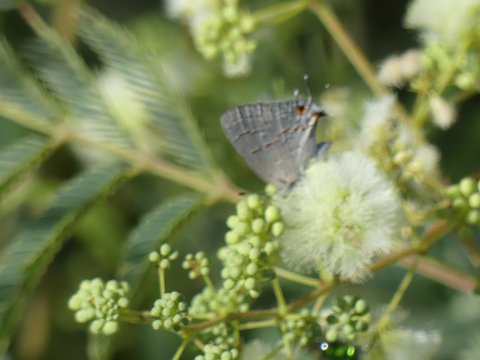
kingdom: Animalia
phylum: Arthropoda
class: Insecta
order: Lepidoptera
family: Lycaenidae
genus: Ministrymon
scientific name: Ministrymon leda
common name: Leda Ministreak
